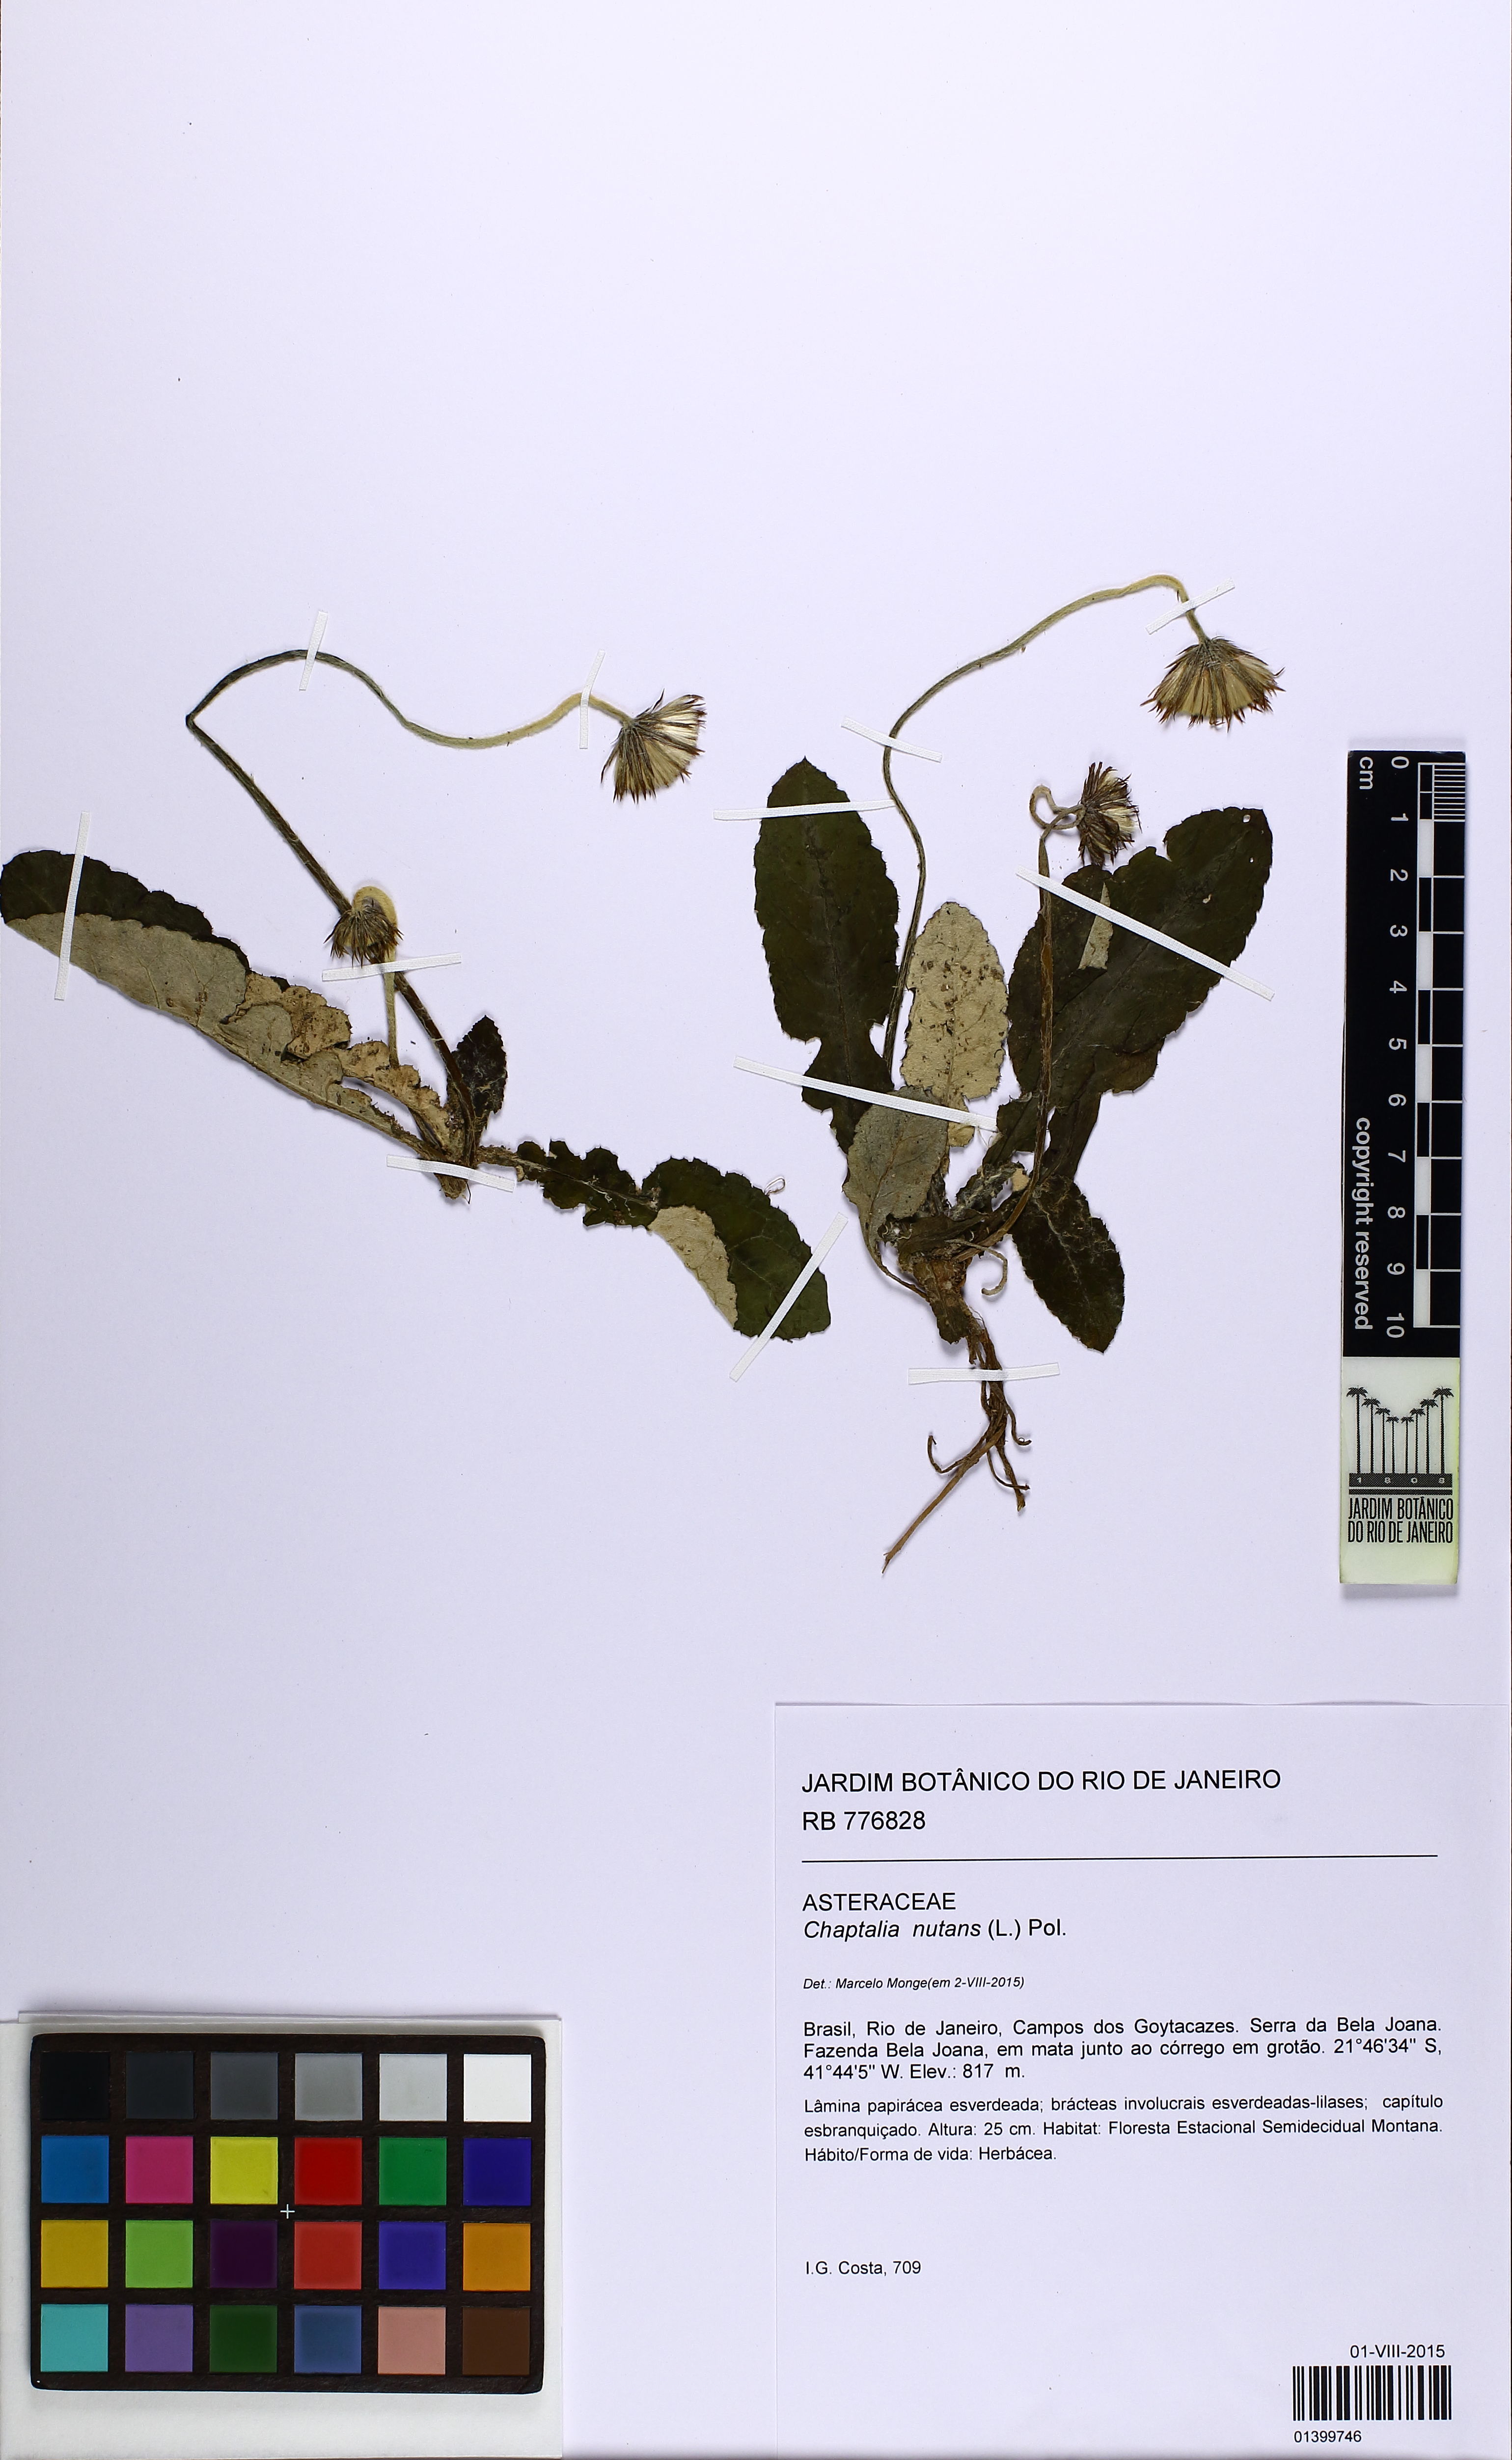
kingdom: Plantae
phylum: Tracheophyta
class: Magnoliopsida
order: Asterales
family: Asteraceae
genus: Chaptalia
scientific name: Chaptalia nutans
